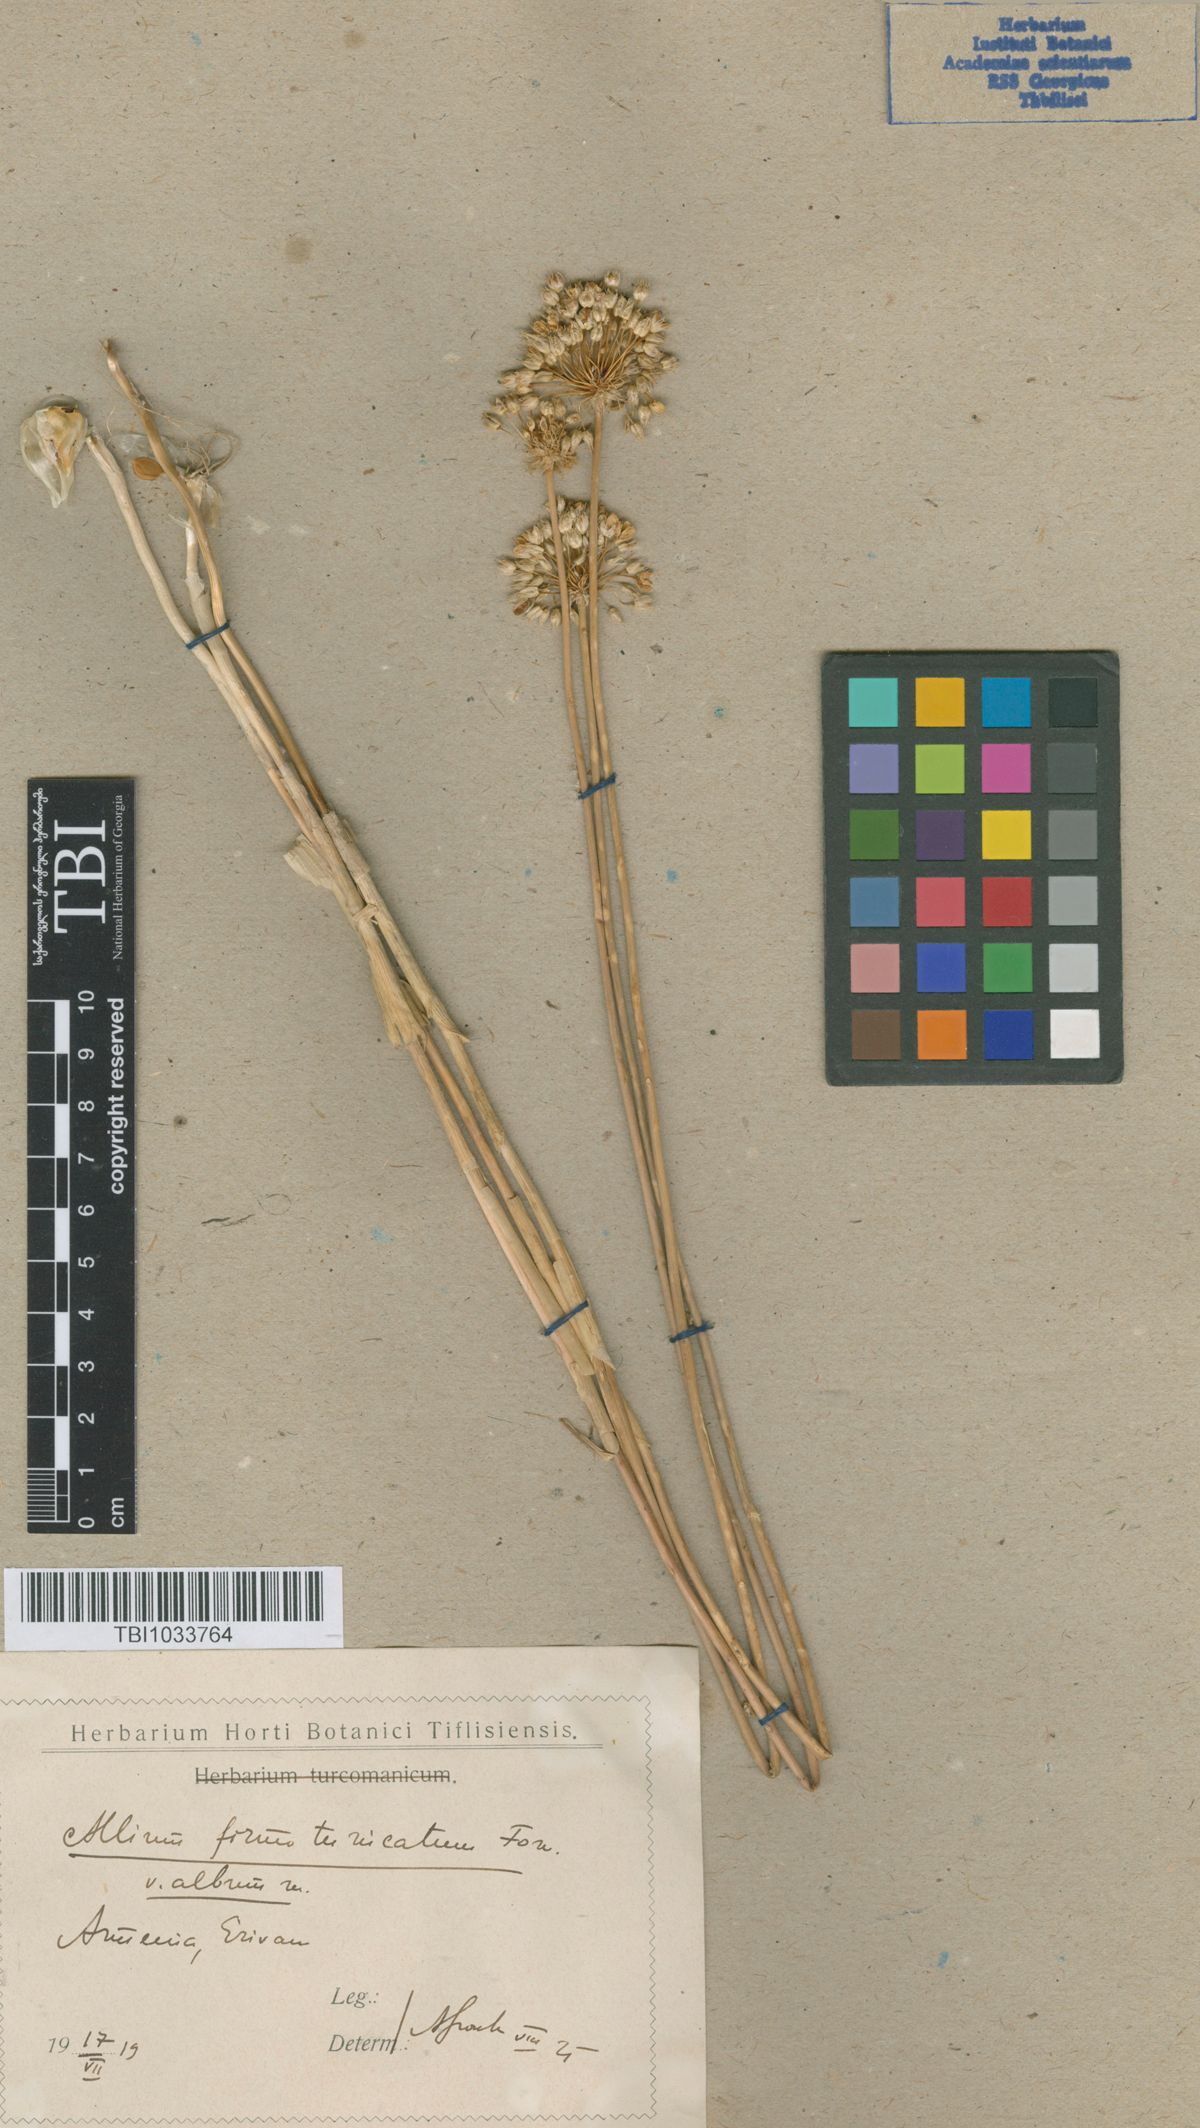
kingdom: Plantae
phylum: Tracheophyta
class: Liliopsida
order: Asparagales
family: Amaryllidaceae
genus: Allium
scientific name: Allium ampeloprasum
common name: Wild leek
